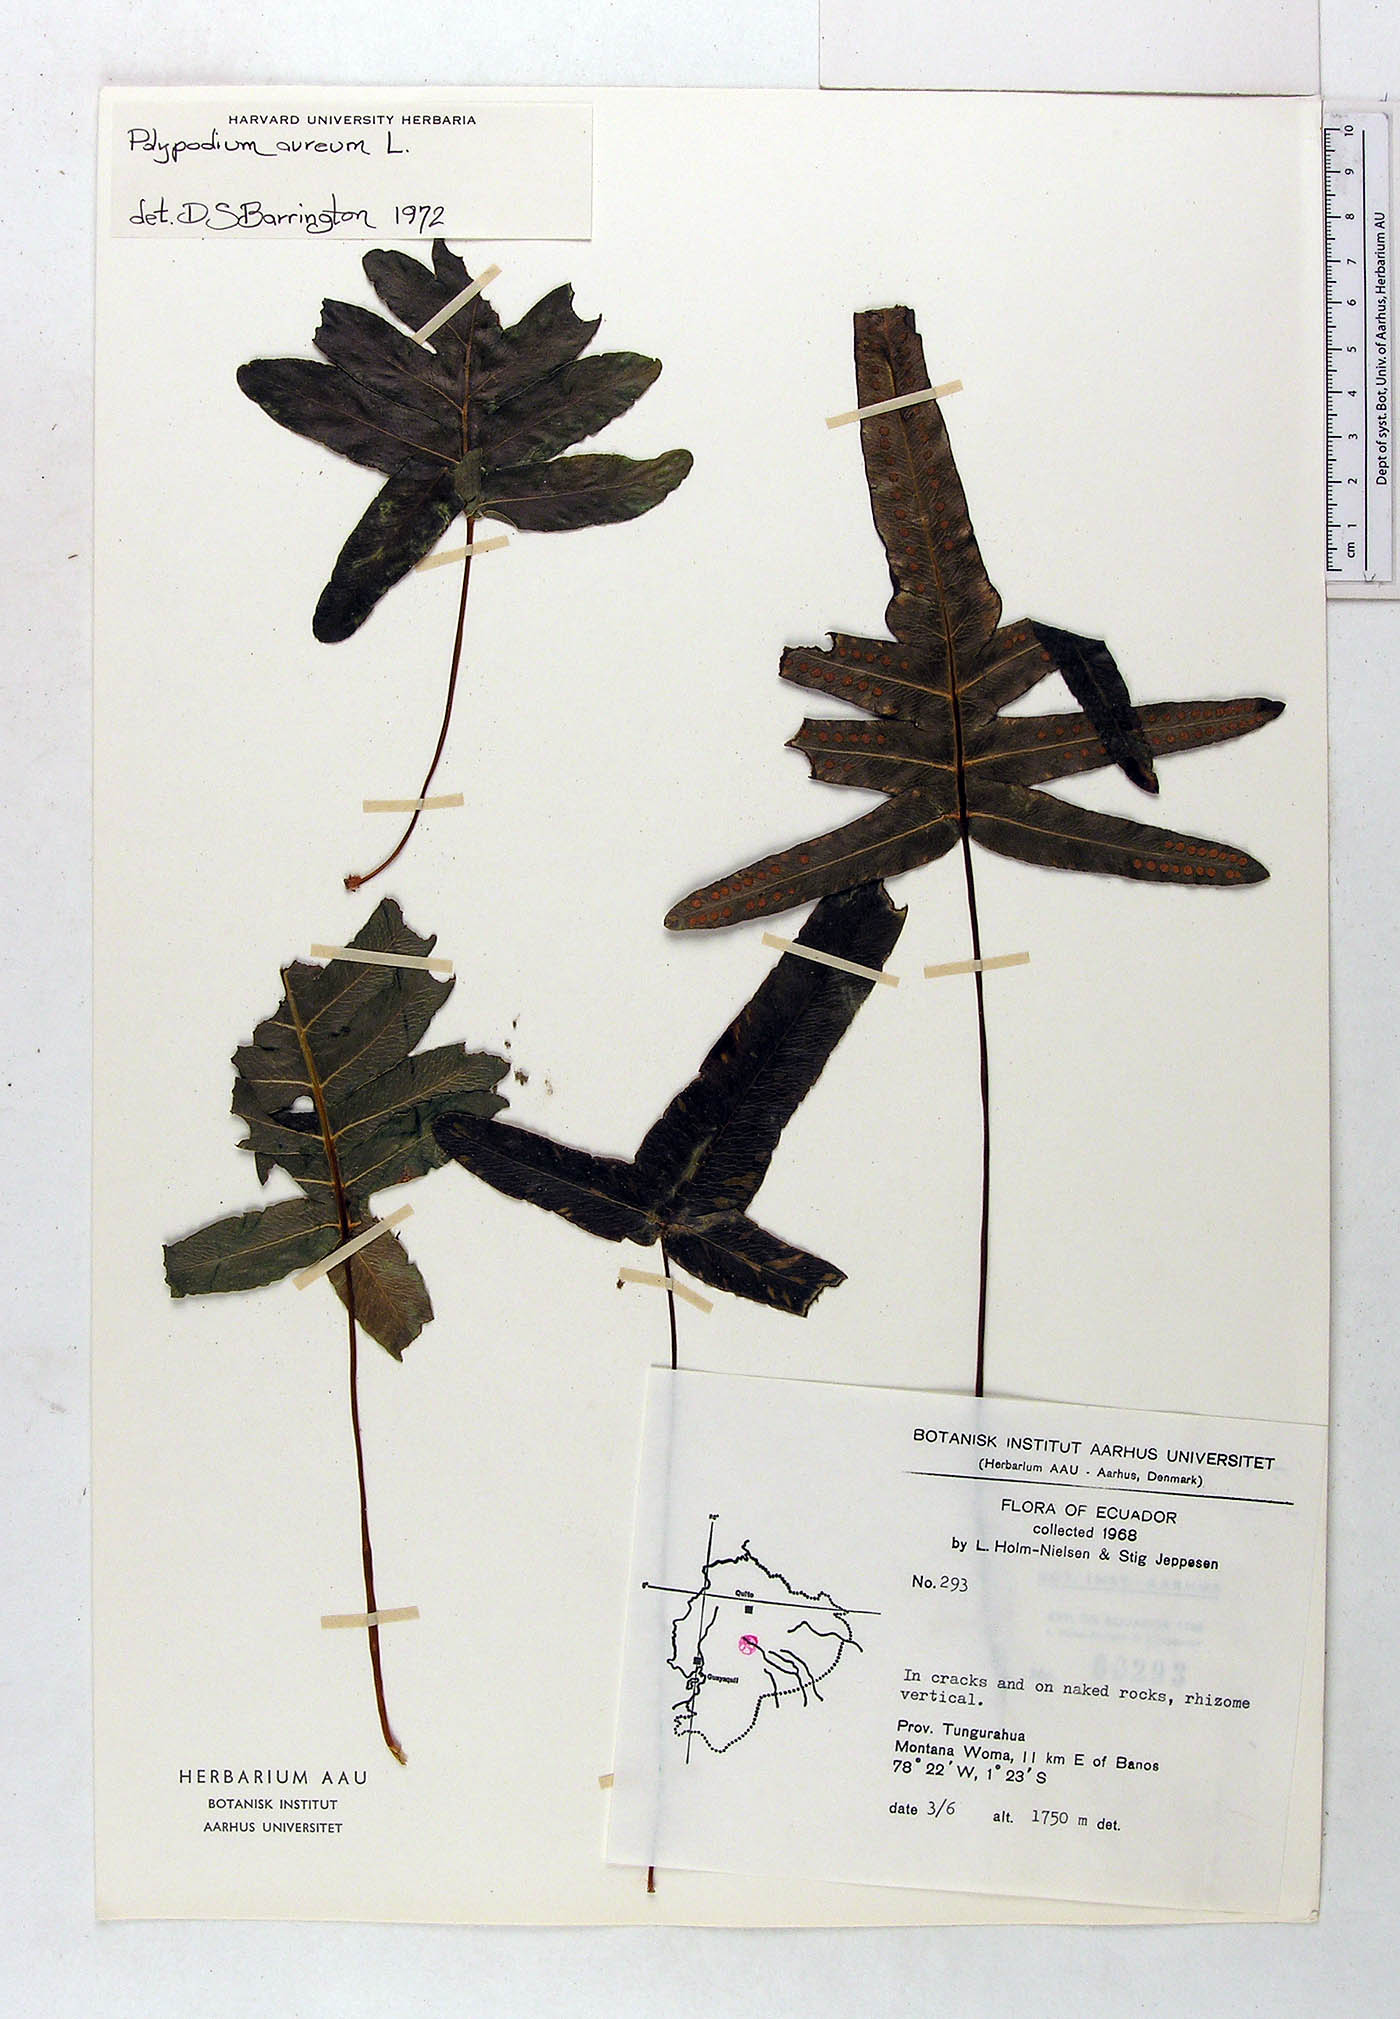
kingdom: Plantae
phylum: Tracheophyta
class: Polypodiopsida
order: Polypodiales
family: Polypodiaceae
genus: Phlebodium
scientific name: Phlebodium aureum
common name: Gold-foot fern
